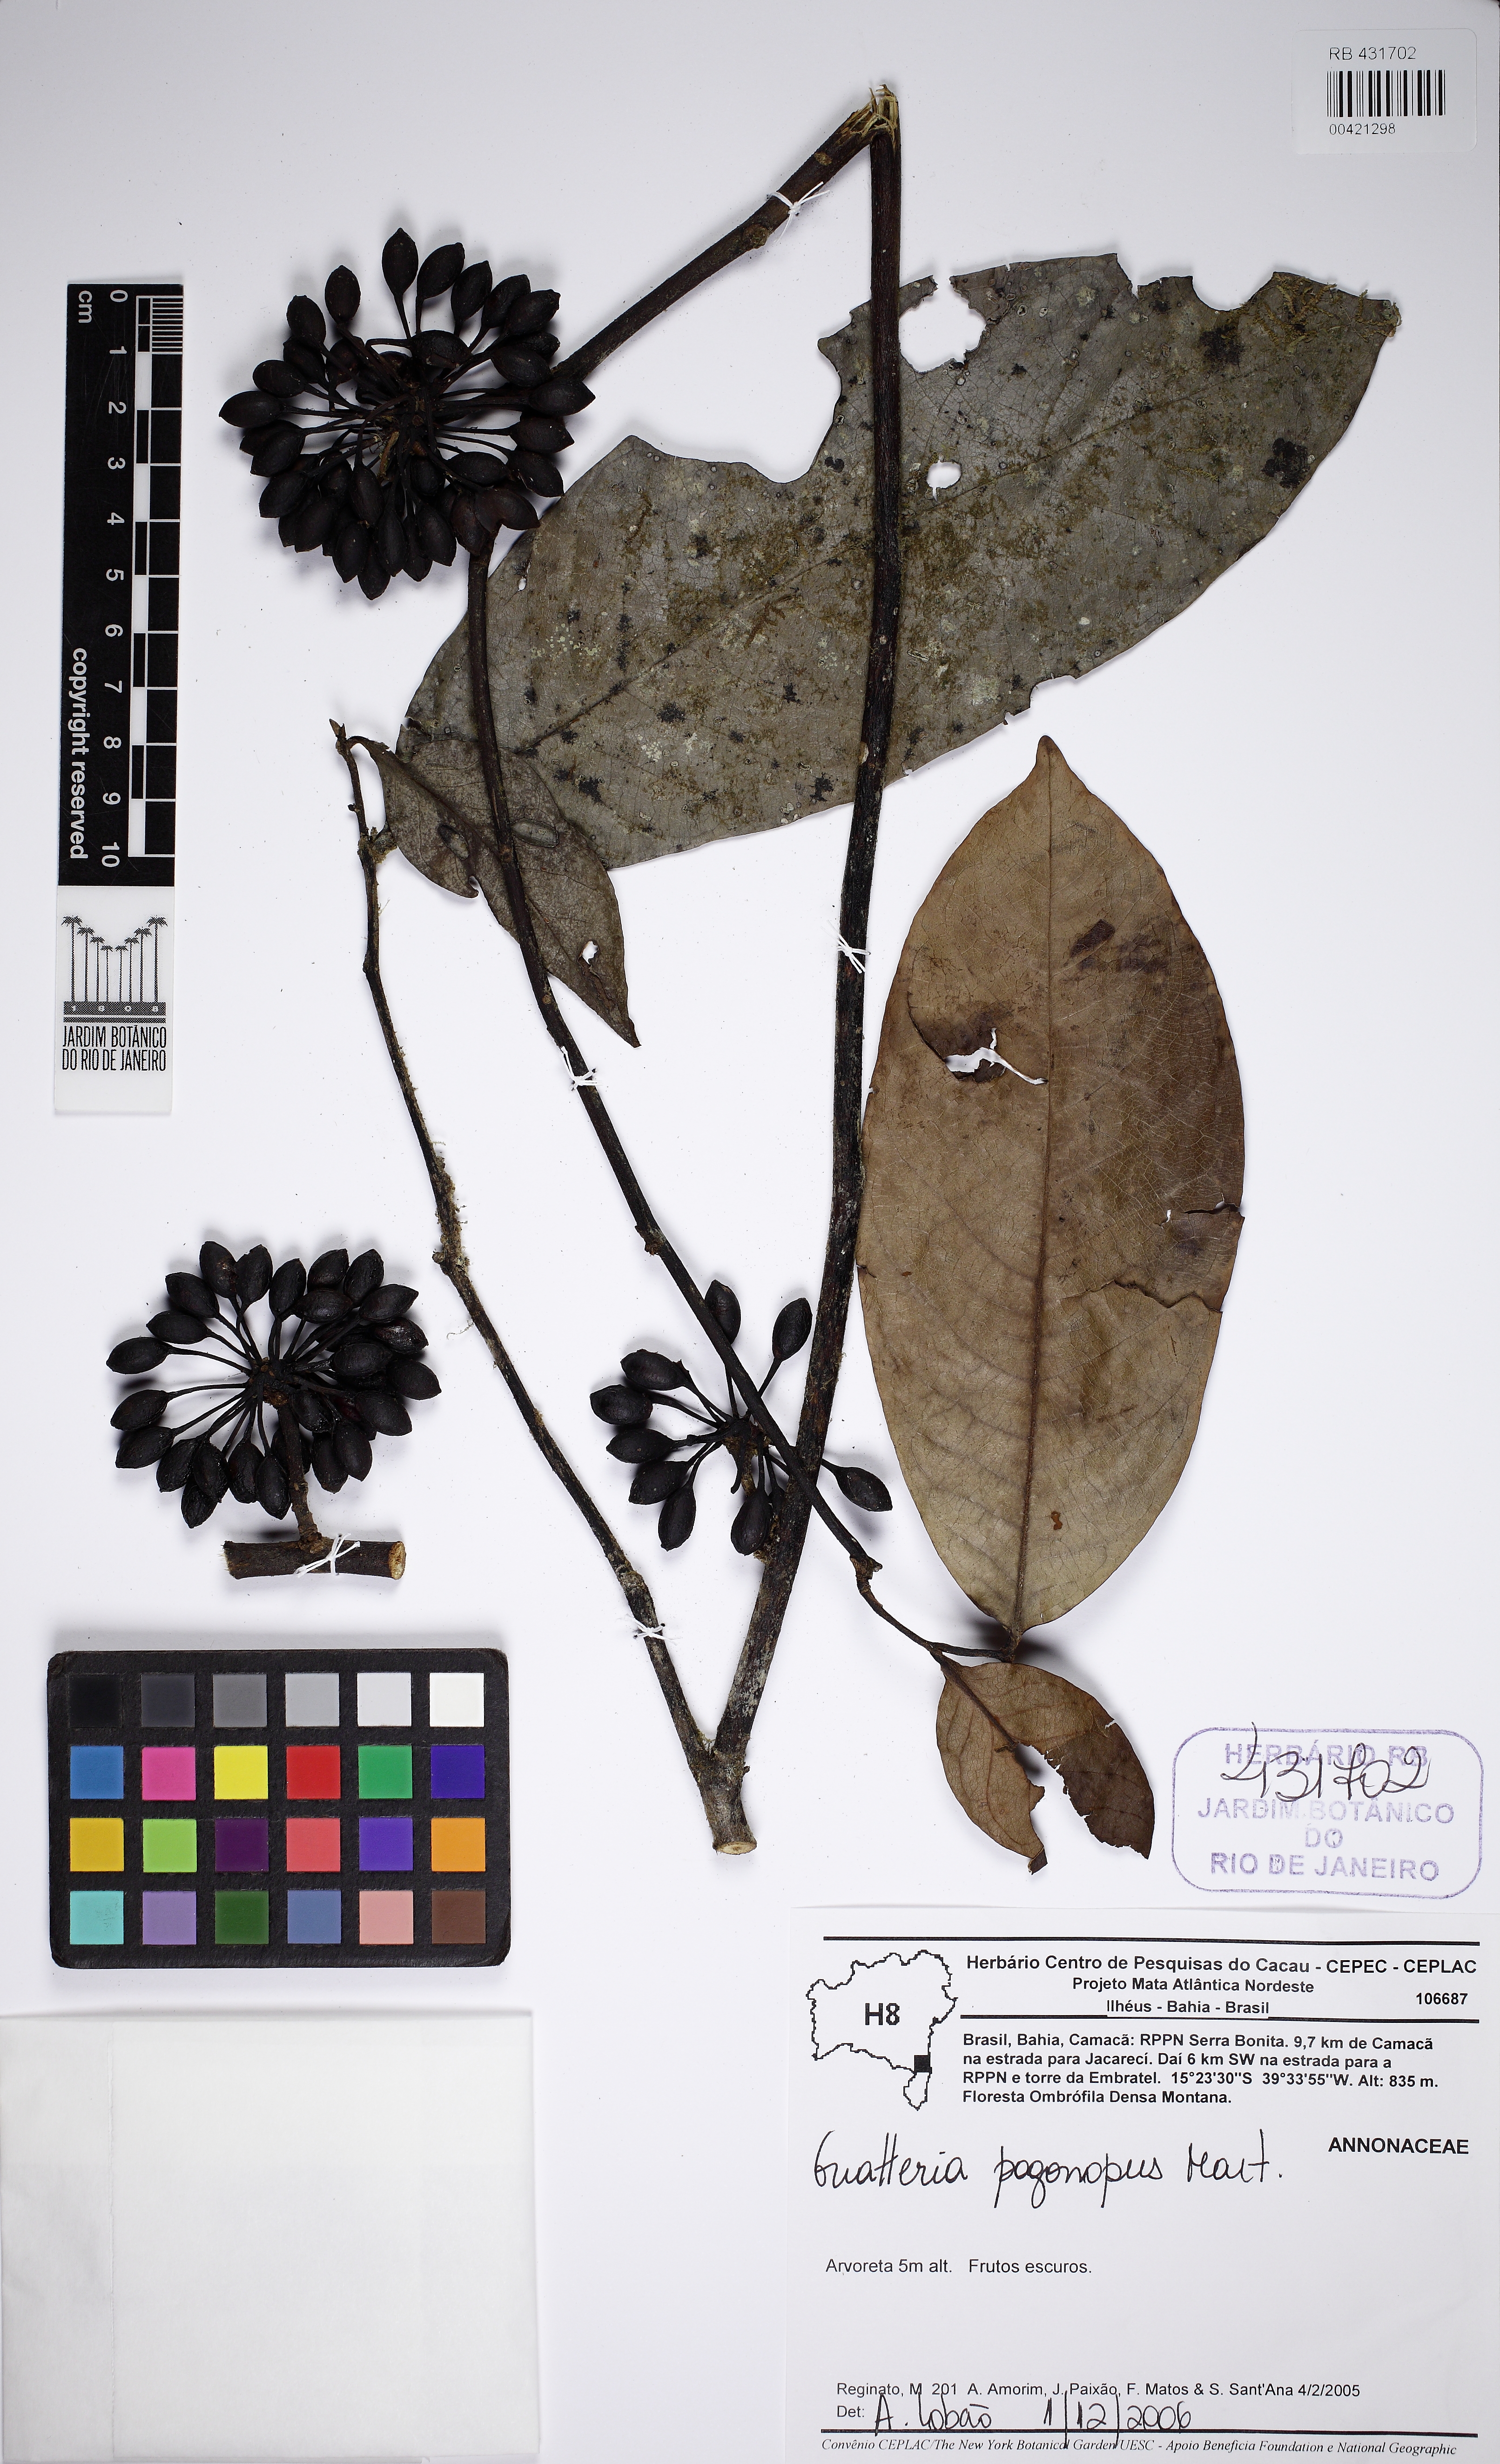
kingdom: Plantae
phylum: Tracheophyta
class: Magnoliopsida
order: Magnoliales
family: Annonaceae
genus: Guatteria
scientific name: Guatteria pogonopus
